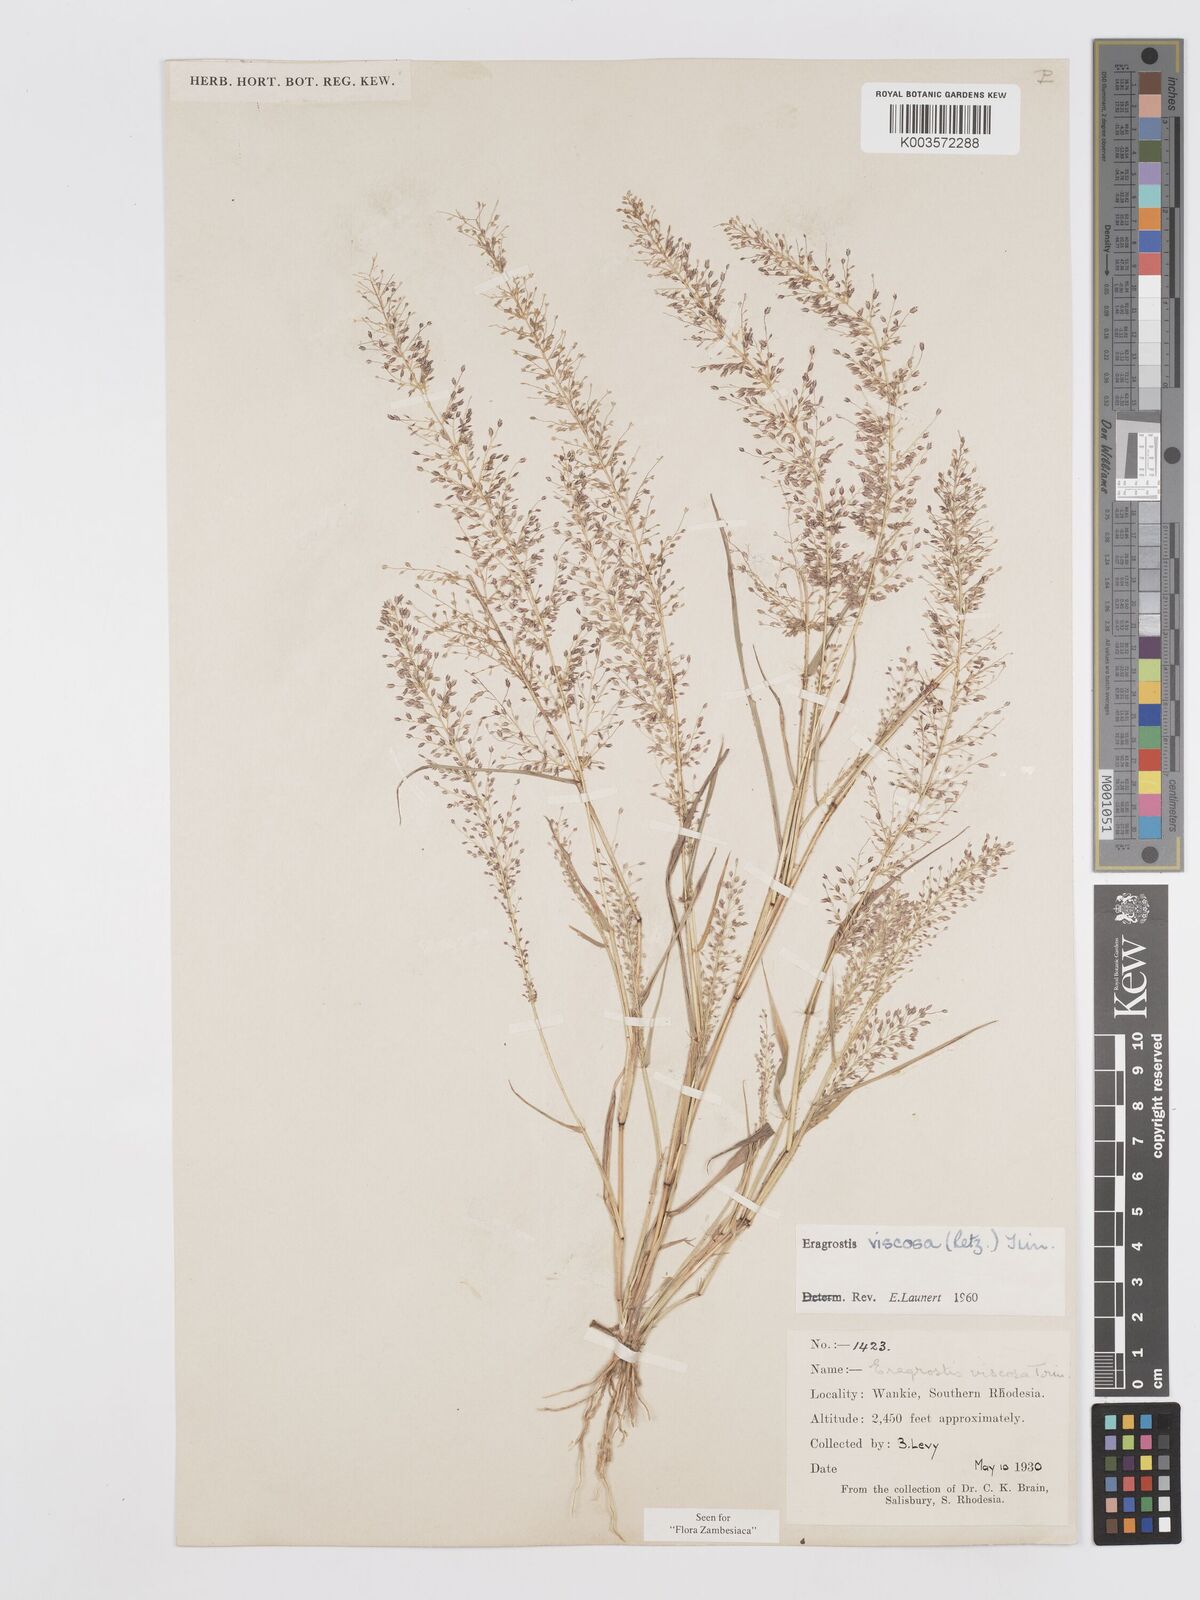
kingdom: Plantae
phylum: Tracheophyta
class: Liliopsida
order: Poales
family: Poaceae
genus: Eragrostis
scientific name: Eragrostis
